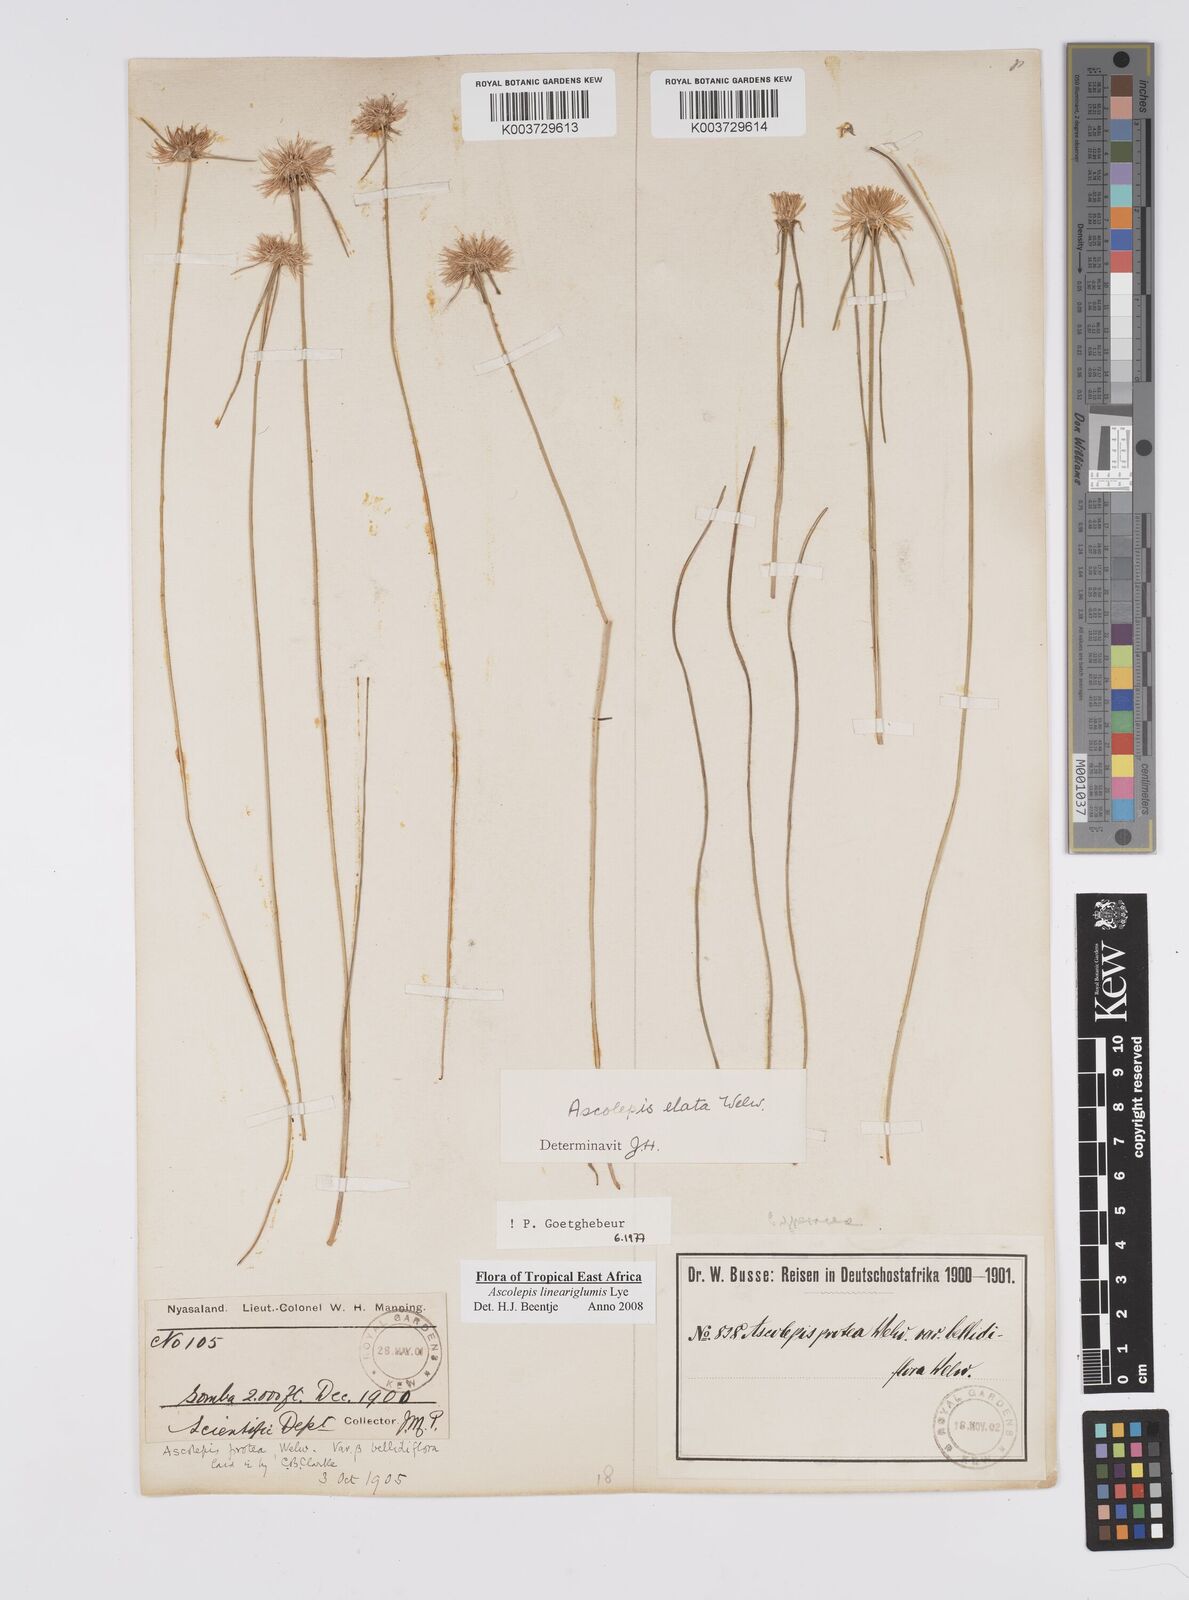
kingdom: Plantae
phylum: Tracheophyta
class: Liliopsida
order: Poales
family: Cyperaceae
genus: Cyperus
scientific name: Cyperus
